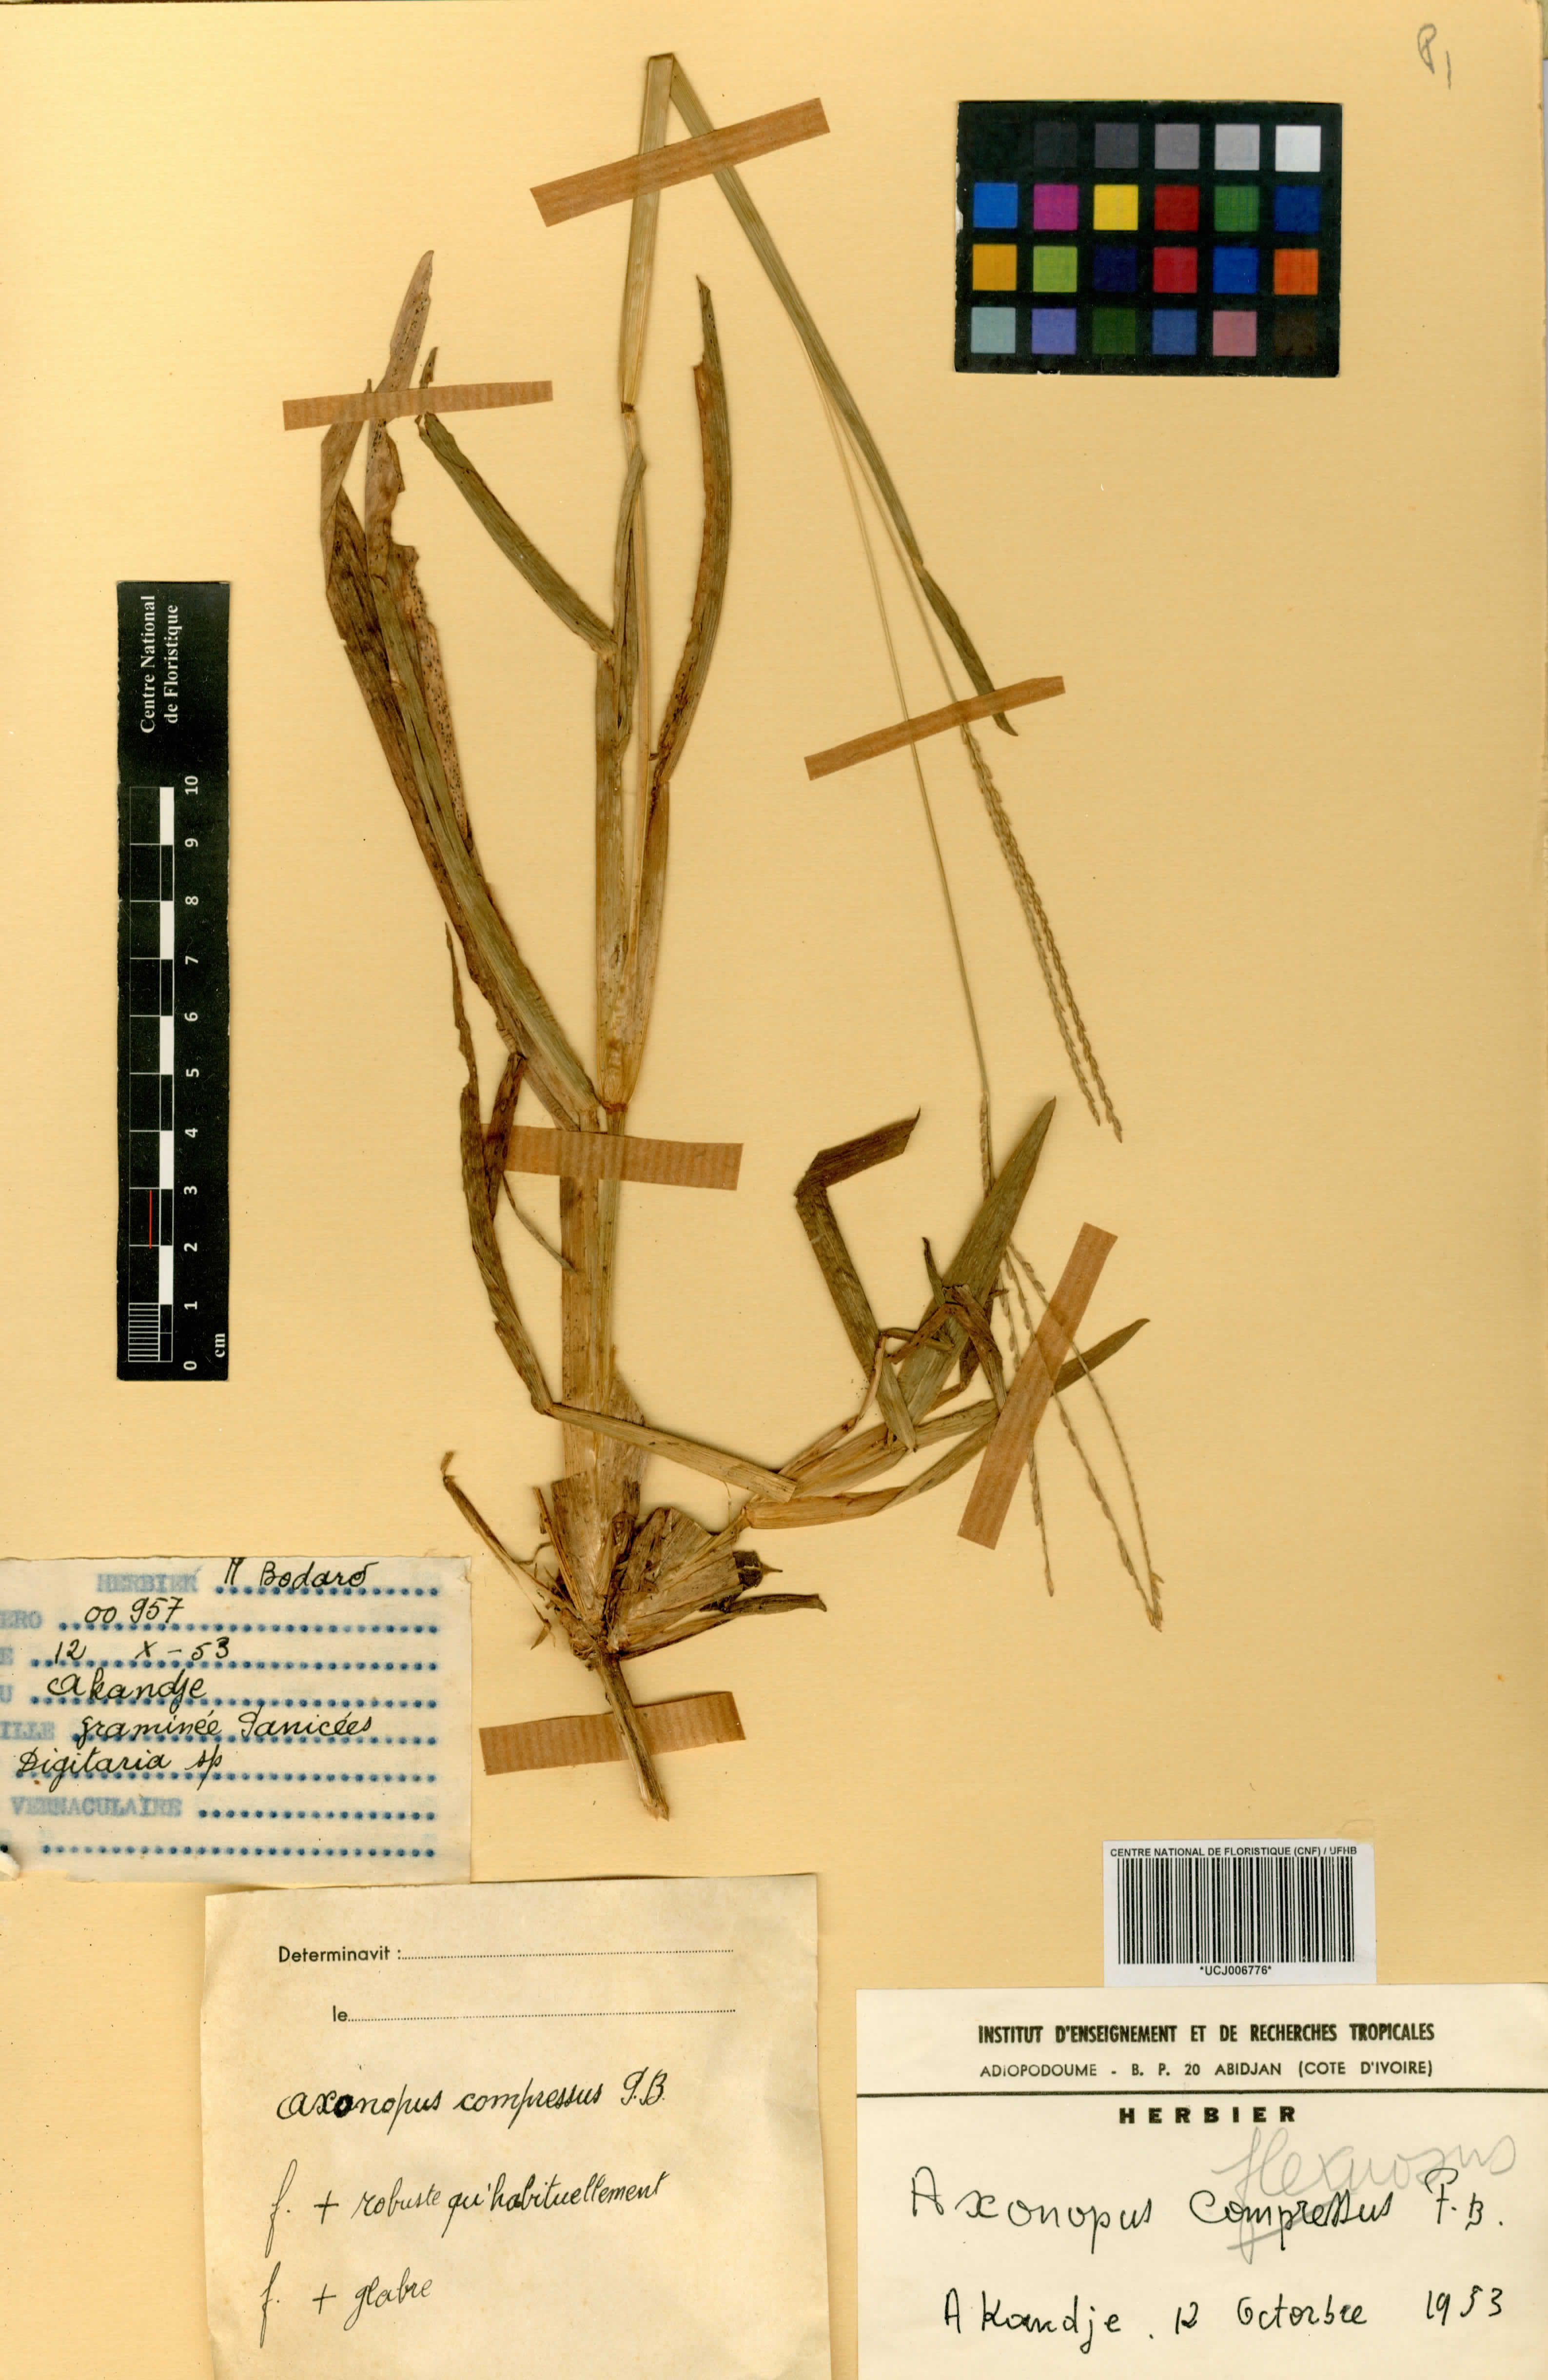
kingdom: Plantae
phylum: Tracheophyta
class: Liliopsida
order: Poales
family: Poaceae
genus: Axonopus
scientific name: Axonopus flexuosus
